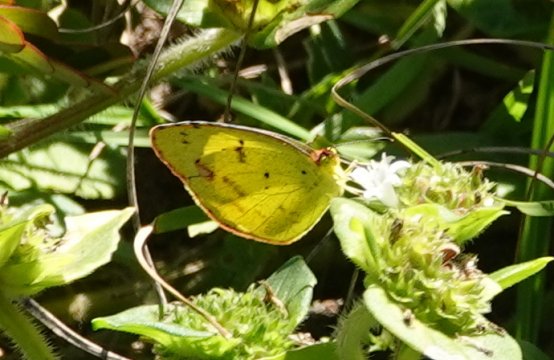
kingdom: Animalia
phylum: Arthropoda
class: Insecta
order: Lepidoptera
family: Pieridae
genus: Pyrisitia
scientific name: Pyrisitia lisa
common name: Little Yellow
